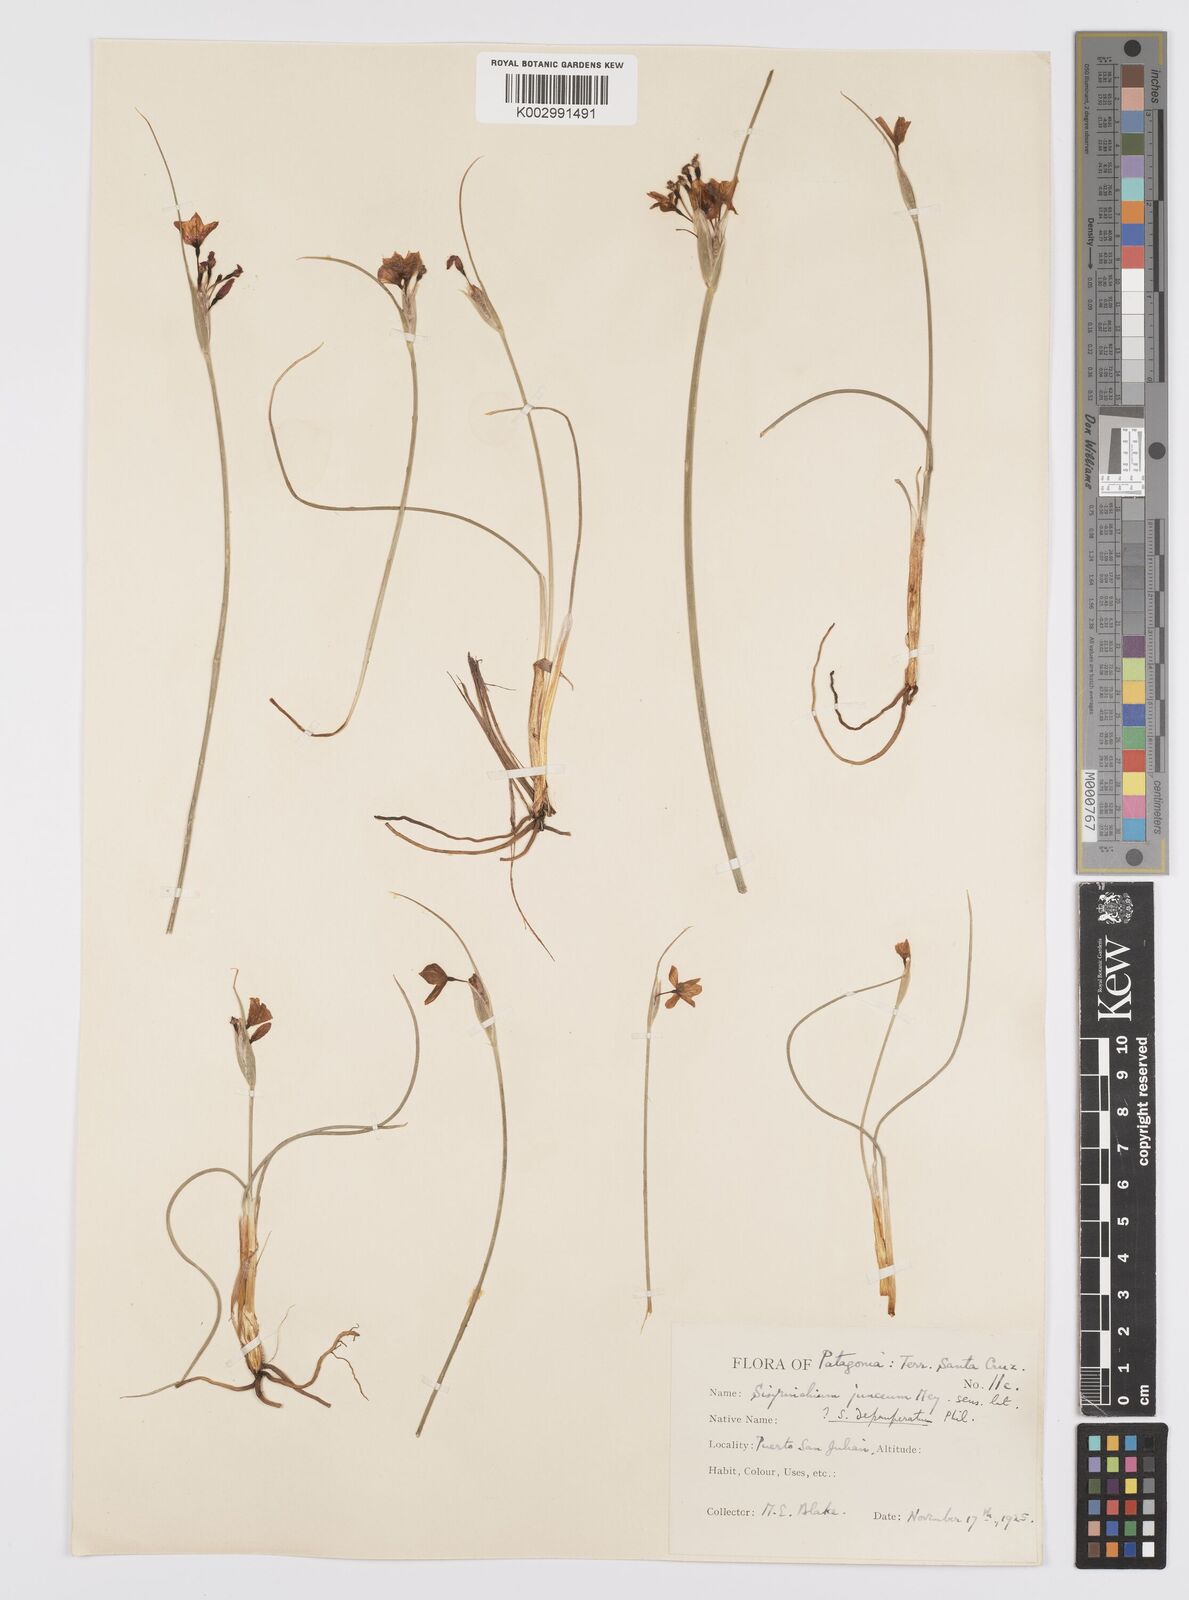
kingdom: Plantae
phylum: Tracheophyta
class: Liliopsida
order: Asparagales
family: Iridaceae
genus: Olsynium
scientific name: Olsynium
